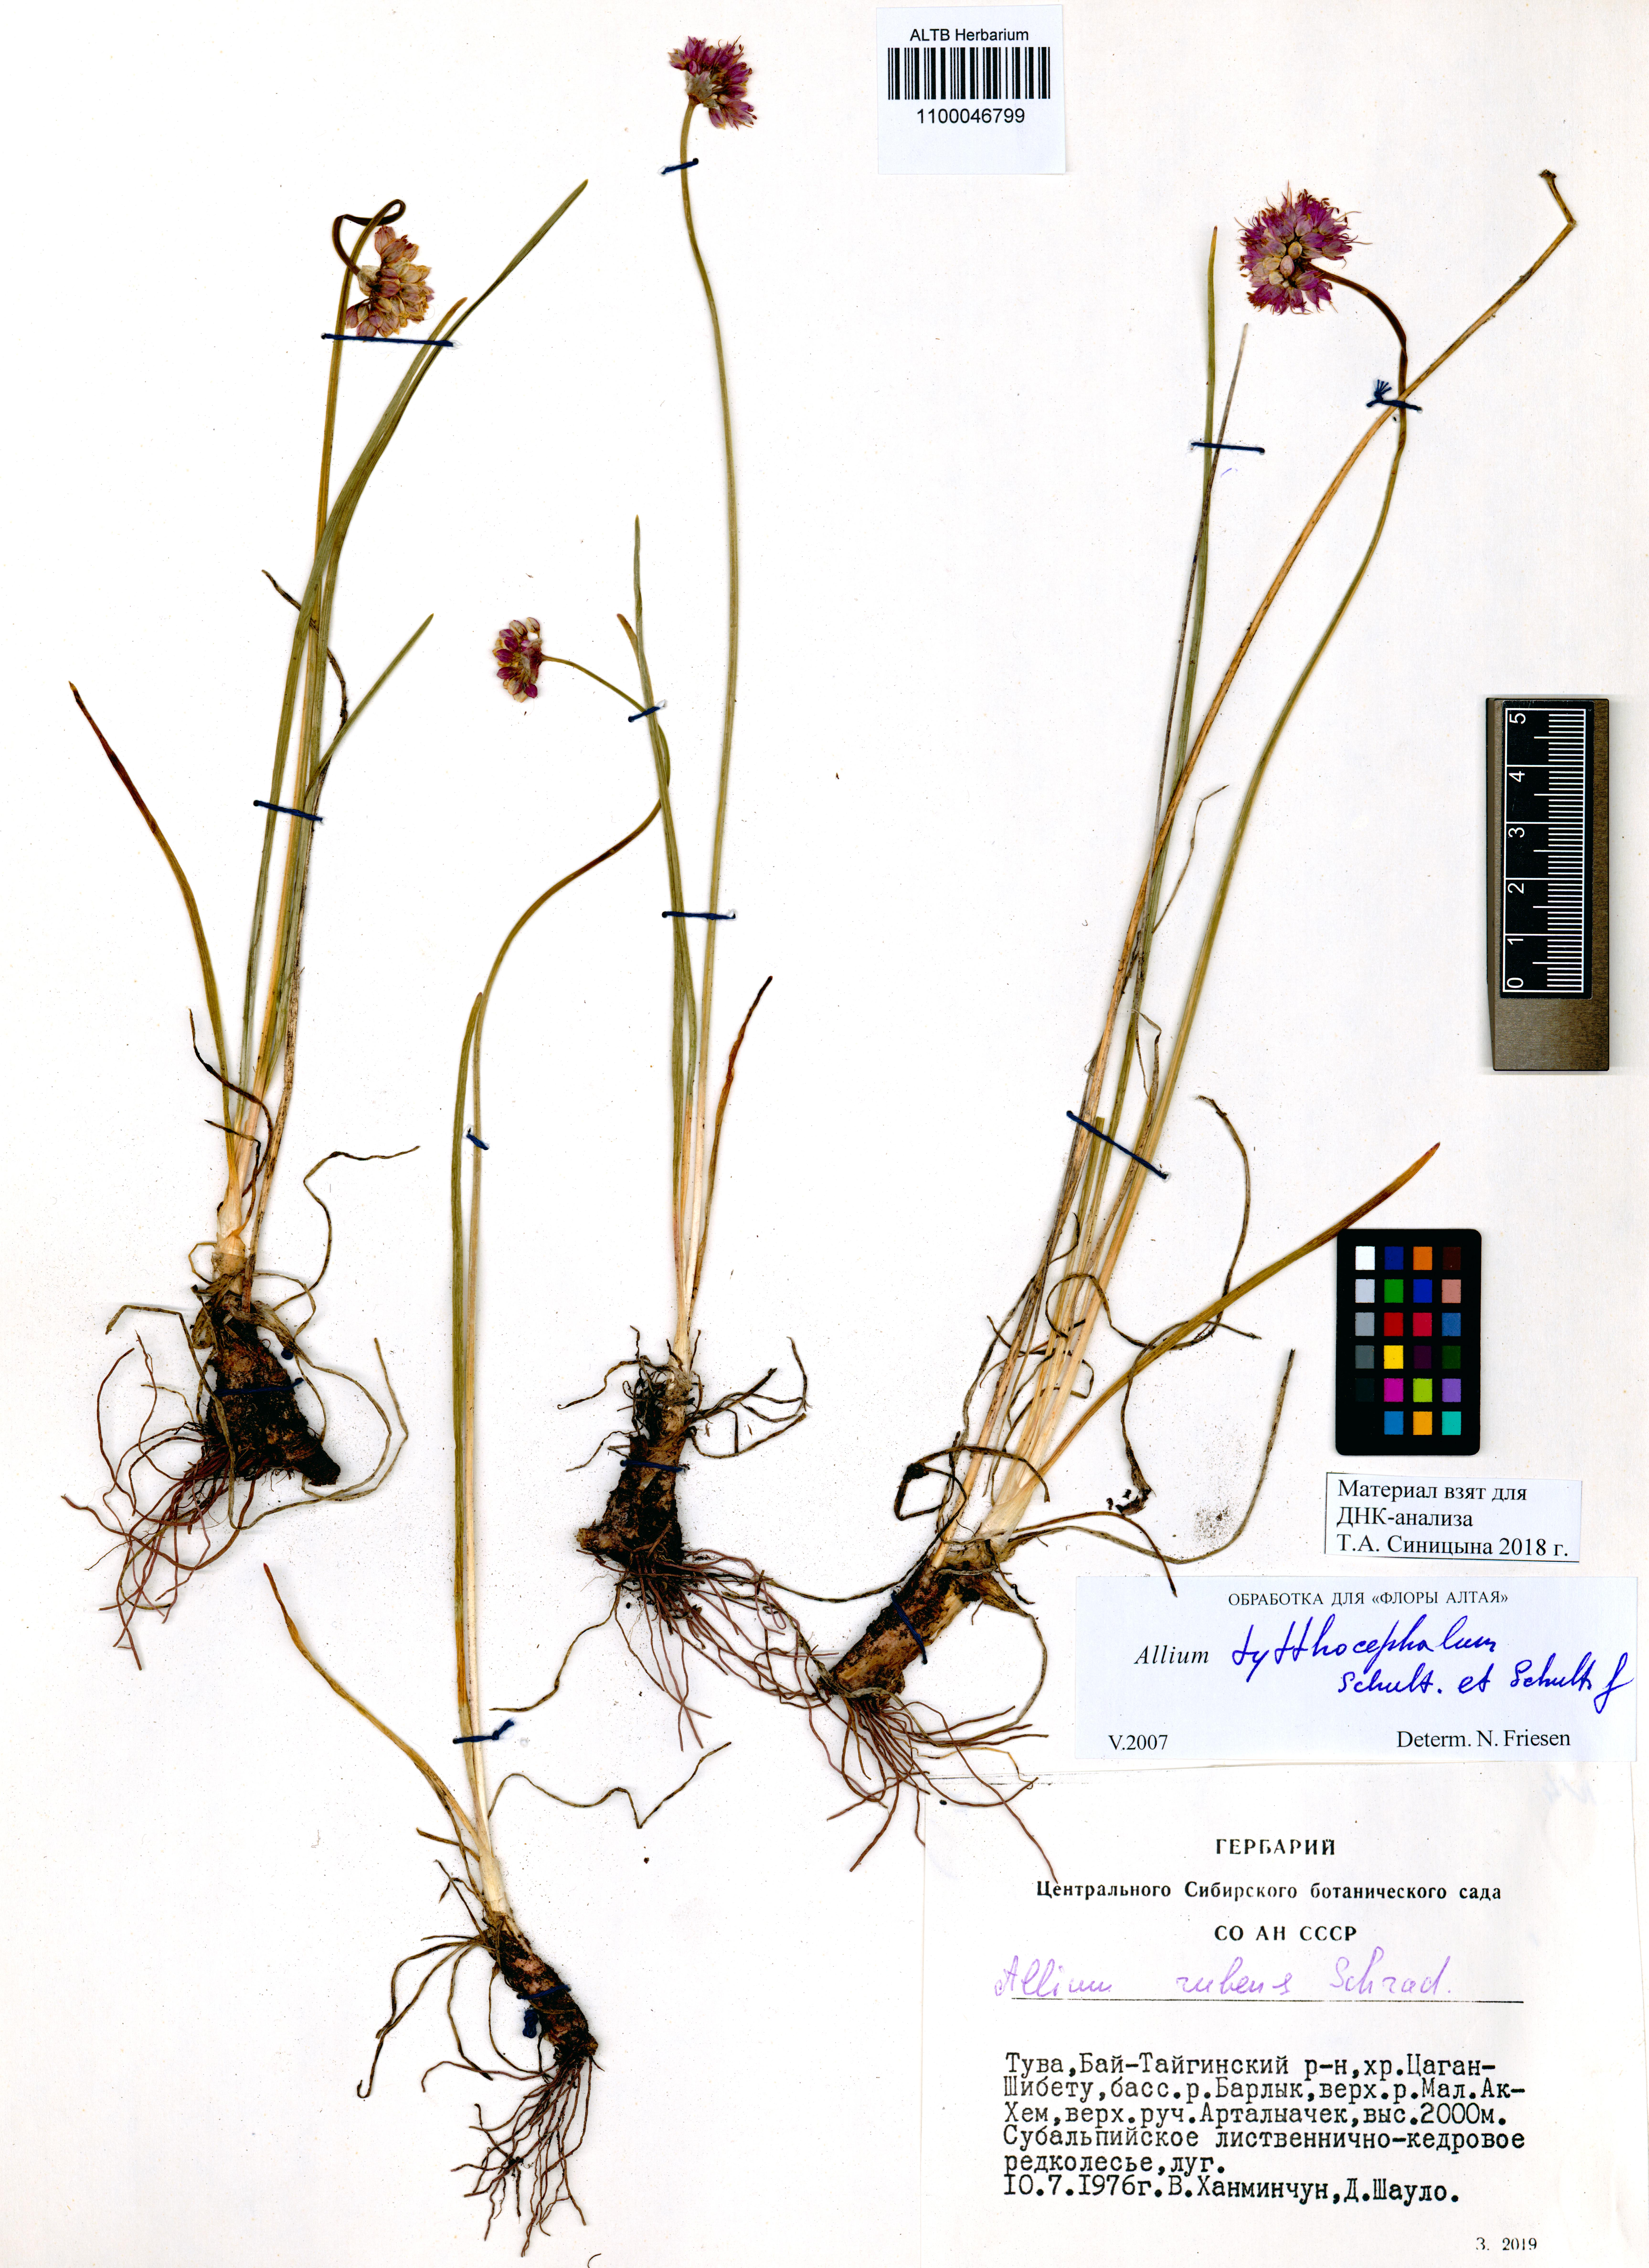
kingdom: Plantae
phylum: Tracheophyta
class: Liliopsida
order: Asparagales
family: Amaryllidaceae
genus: Allium
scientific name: Allium tytthocephalum
